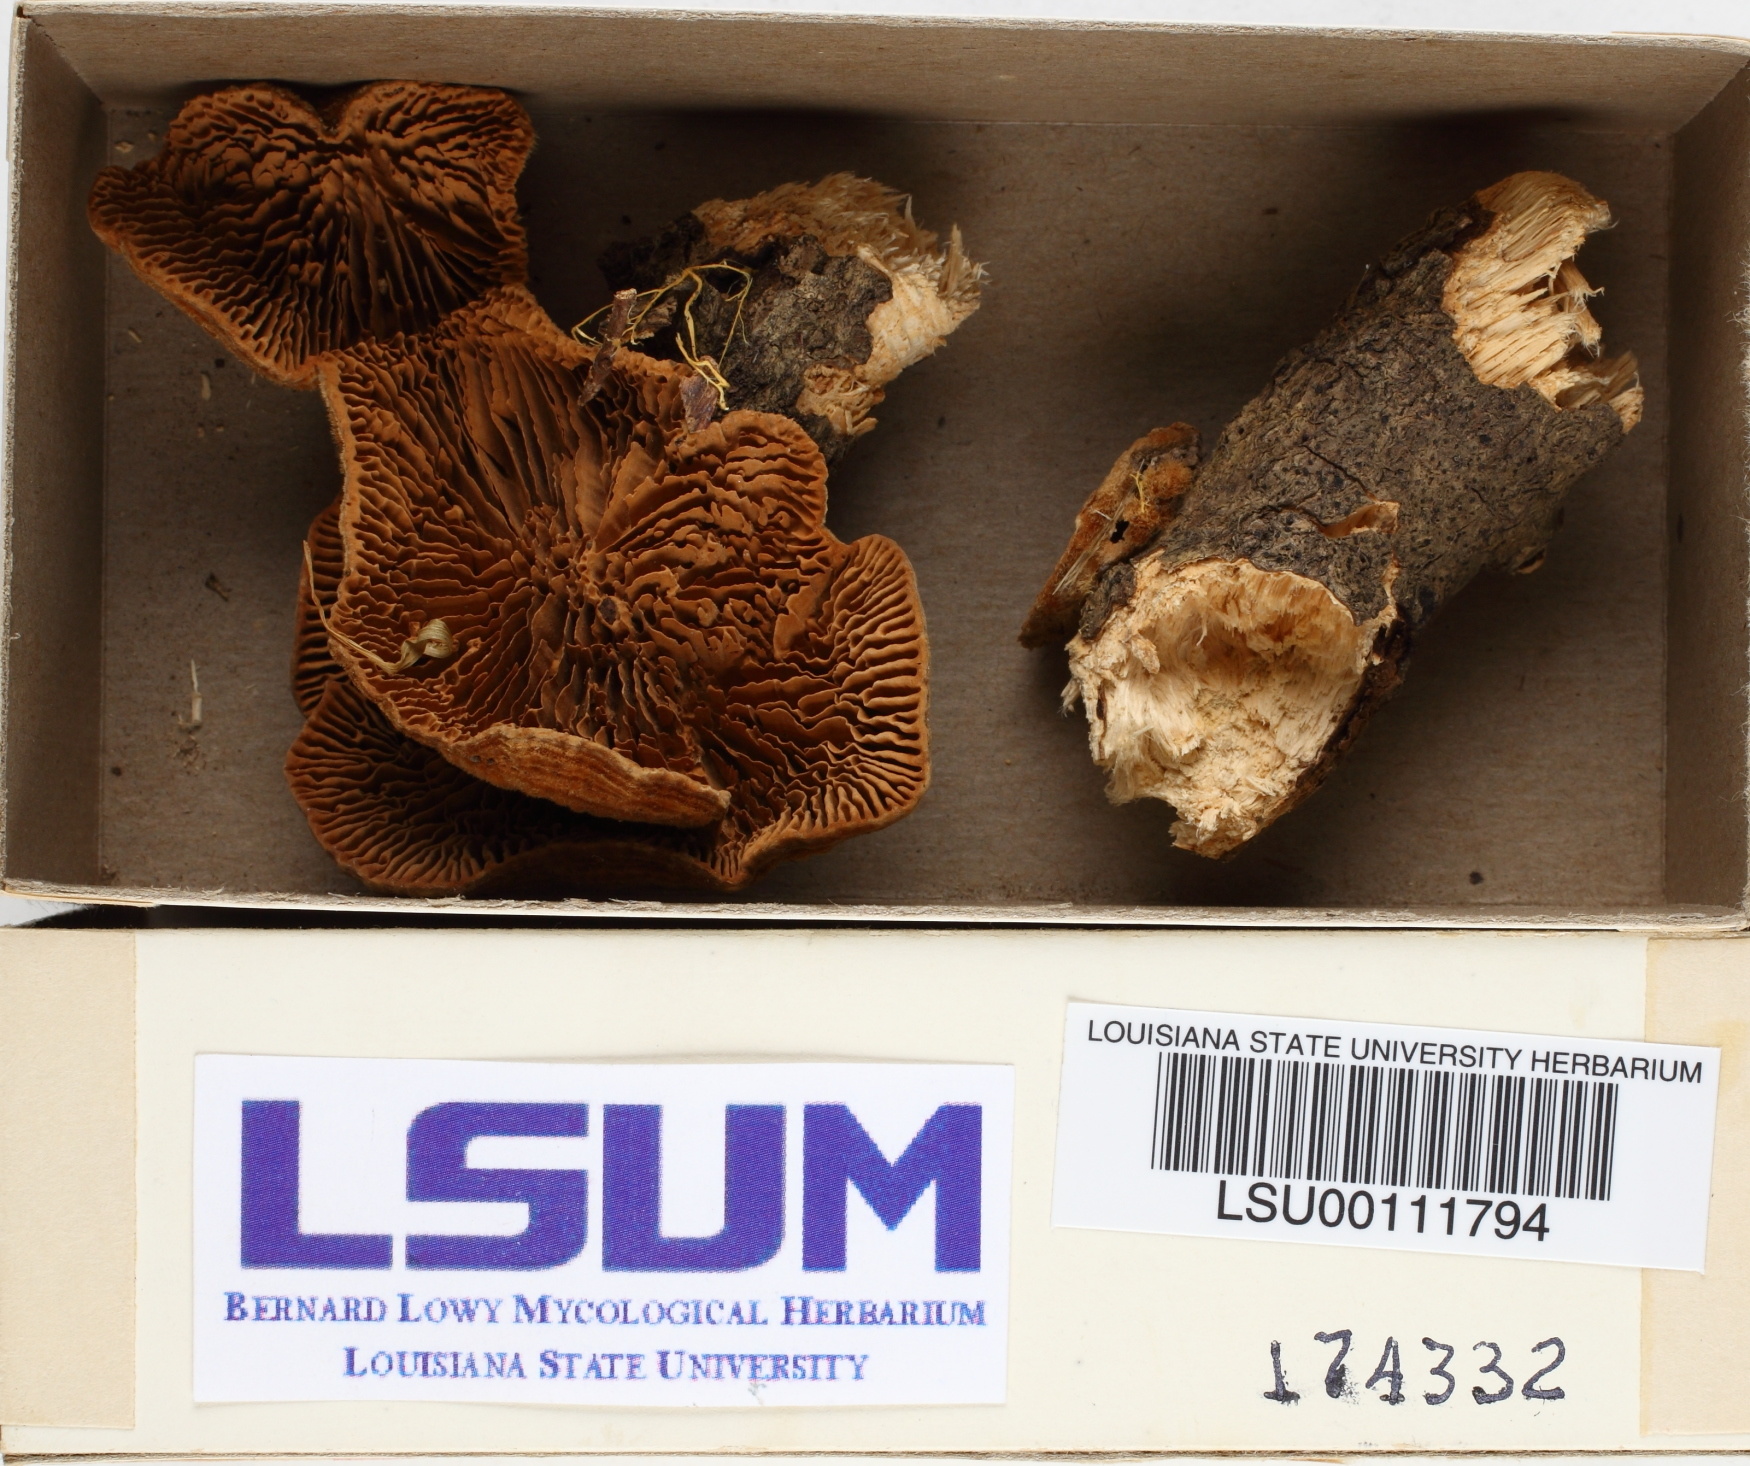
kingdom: Fungi
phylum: Basidiomycota
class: Agaricomycetes
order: Polyporales
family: Polyporaceae
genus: Lenzites
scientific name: Lenzites betulinus
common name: Birch mazegill
